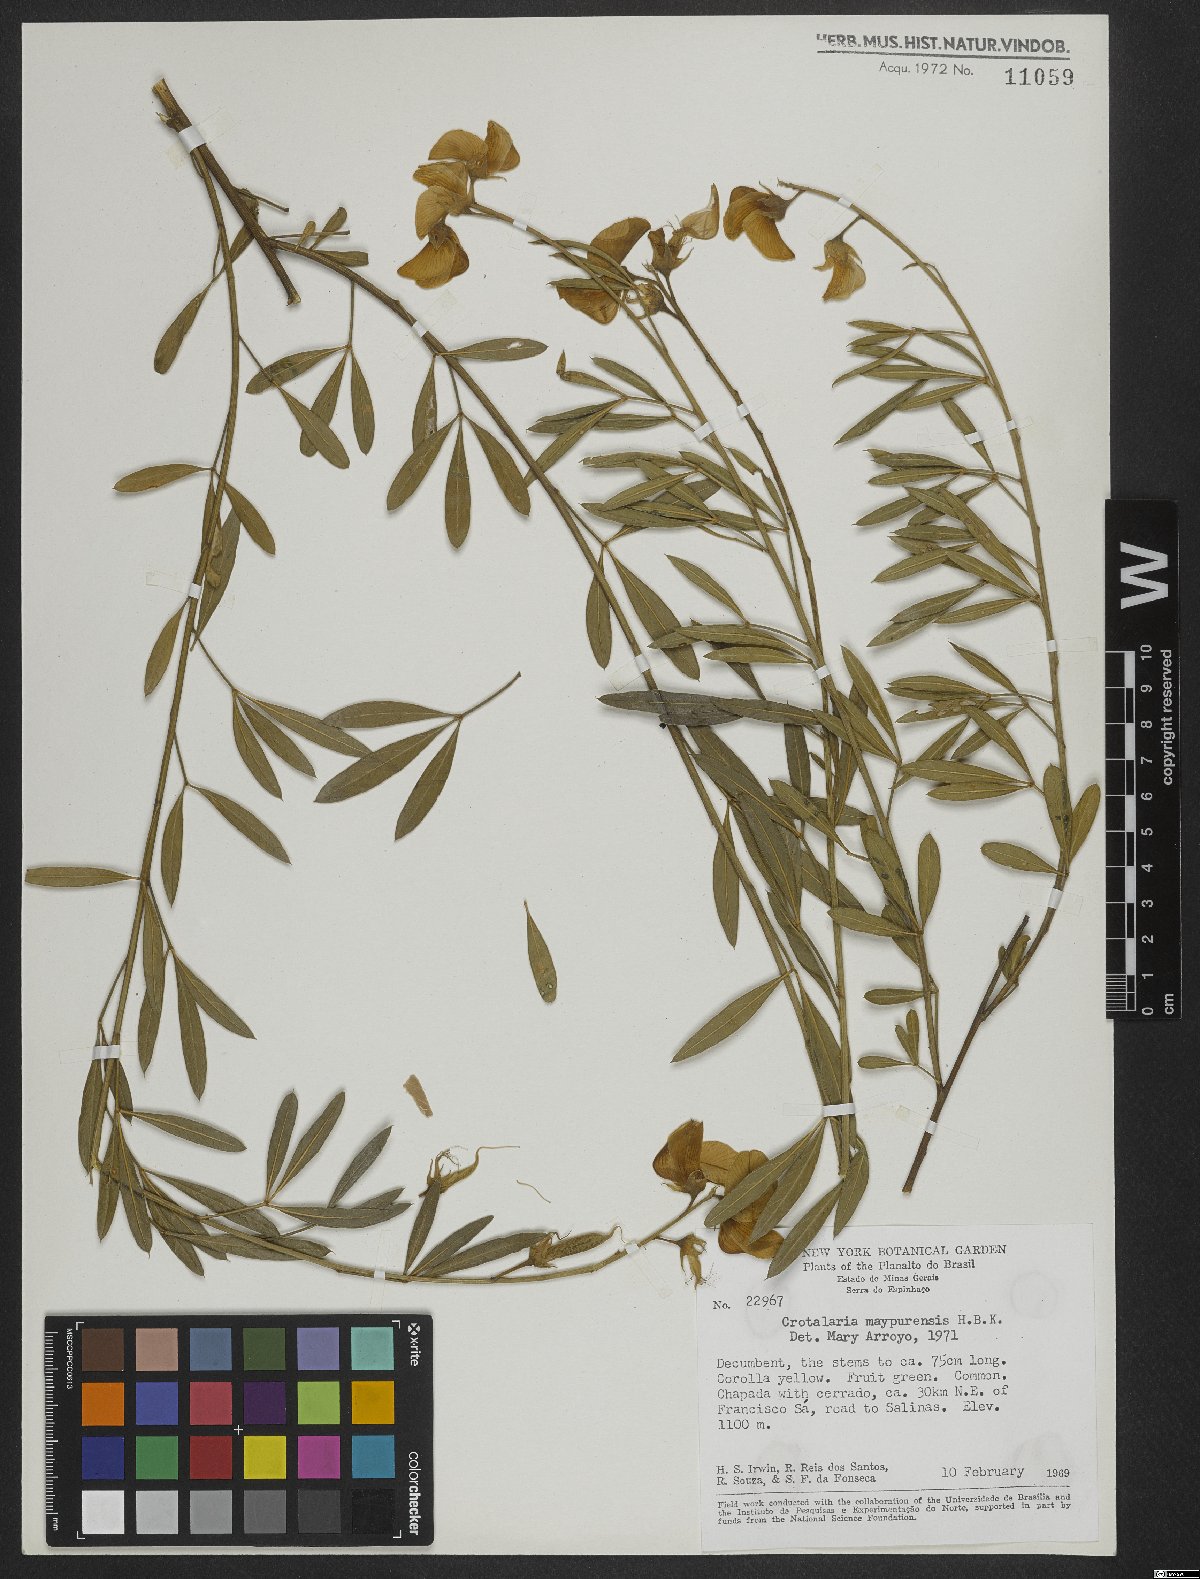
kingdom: Plantae
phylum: Tracheophyta
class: Magnoliopsida
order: Fabales
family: Fabaceae
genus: Crotalaria
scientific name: Crotalaria maypurensis
